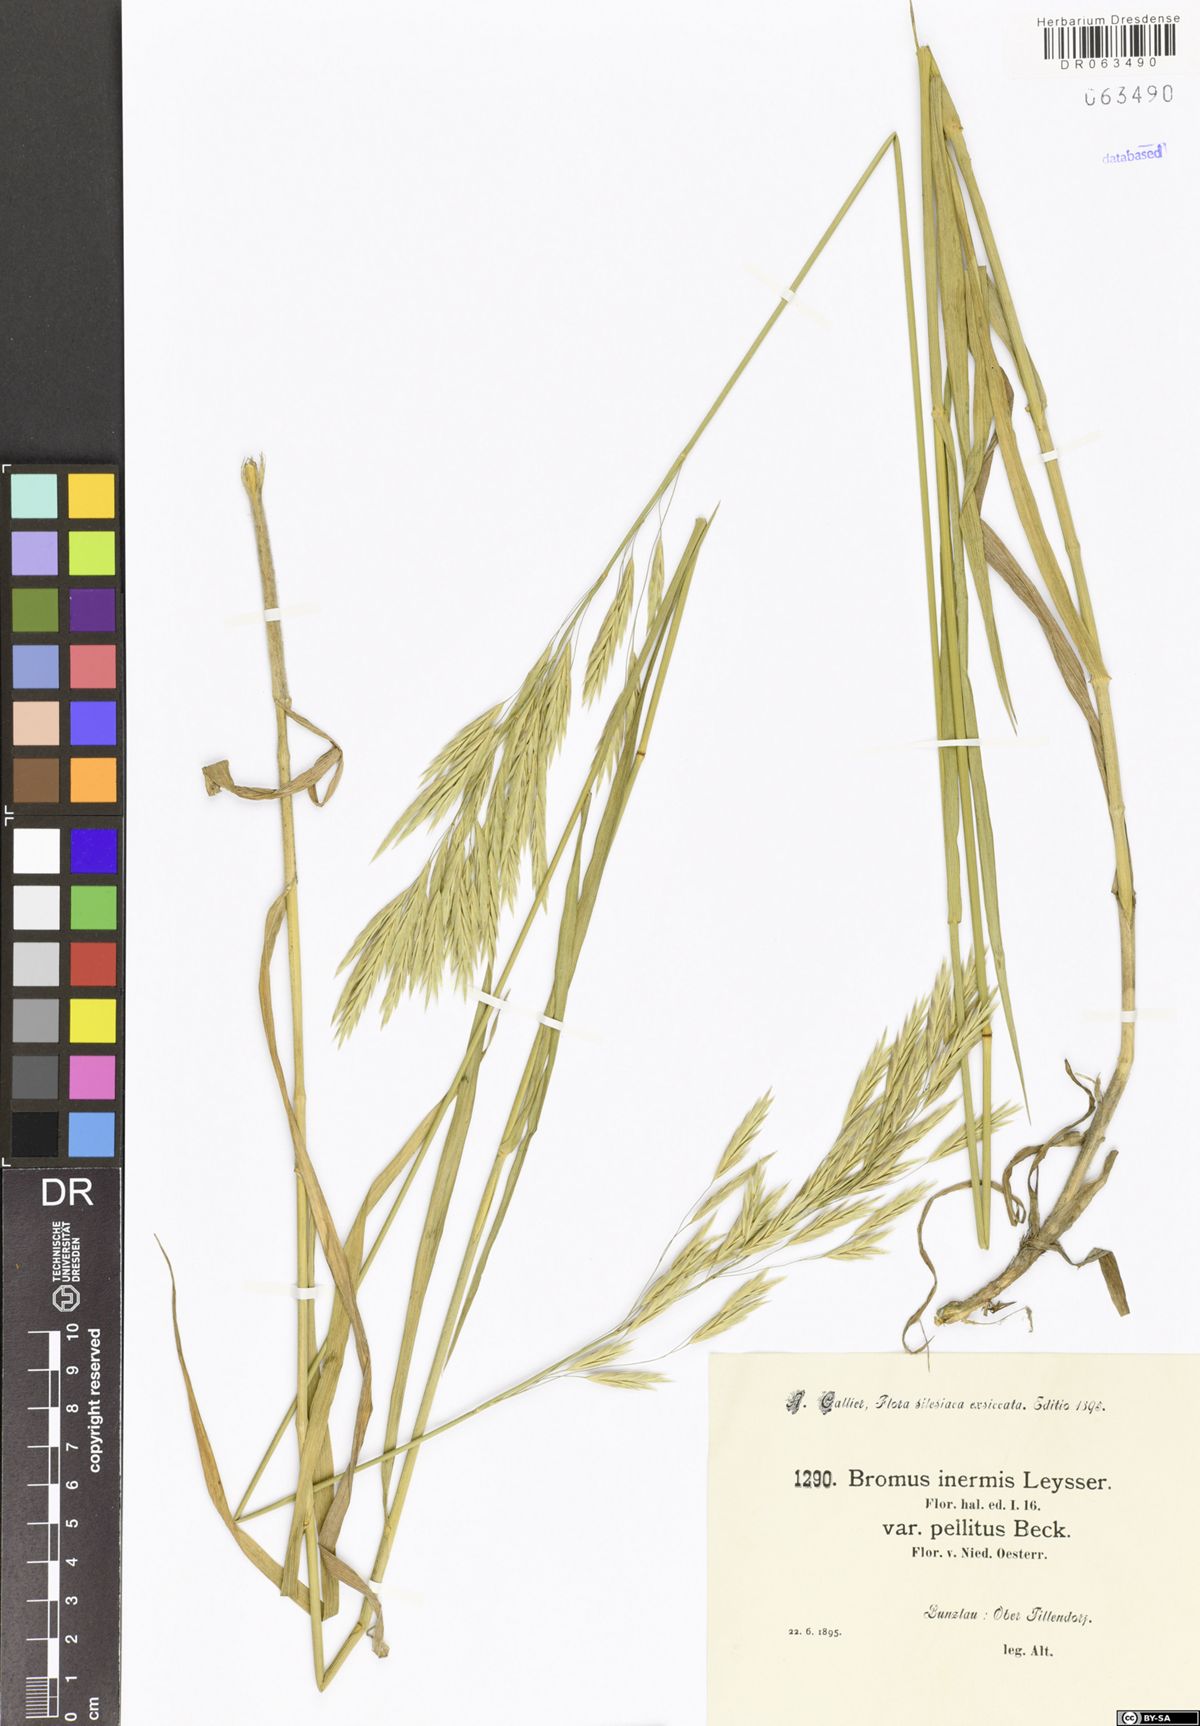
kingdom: Plantae
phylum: Tracheophyta
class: Liliopsida
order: Poales
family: Poaceae
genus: Bromus
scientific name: Bromus inermis
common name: Smooth brome
